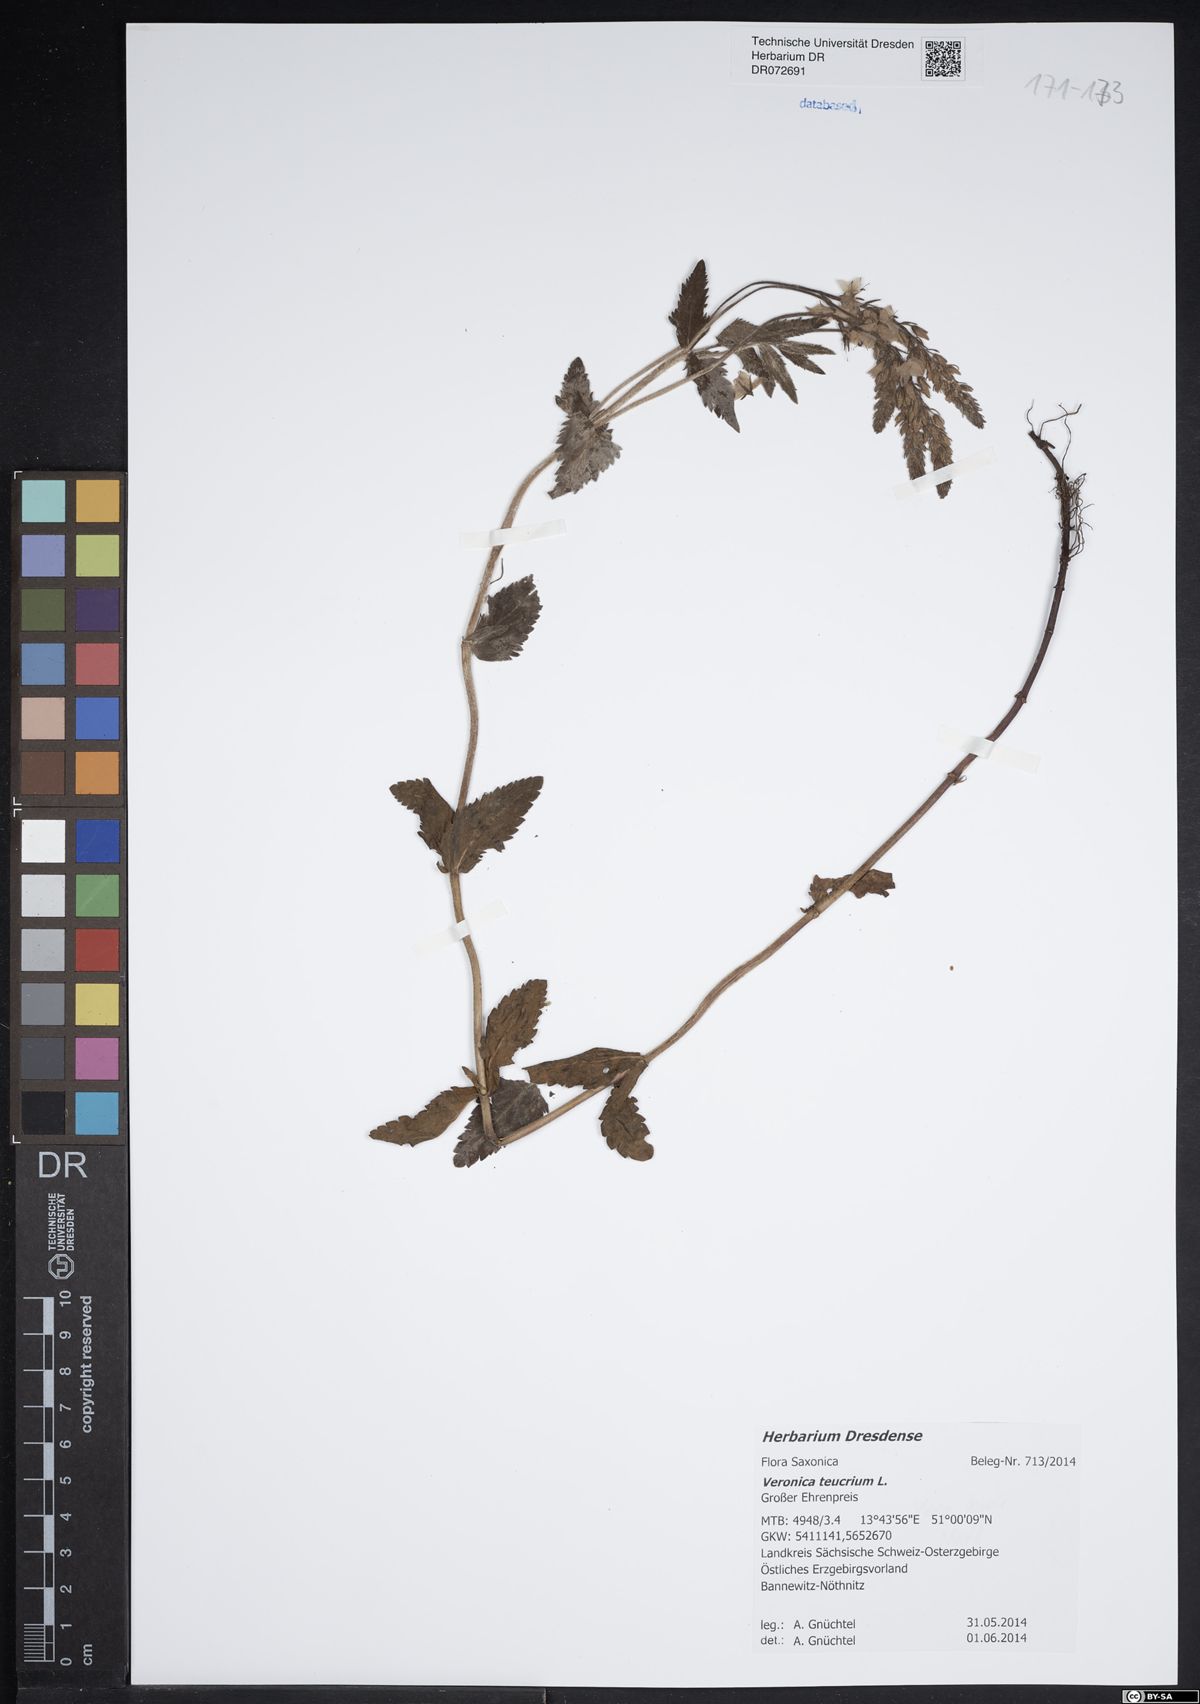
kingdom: Plantae
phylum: Tracheophyta
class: Magnoliopsida
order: Lamiales
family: Plantaginaceae
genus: Veronica
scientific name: Veronica teucrium
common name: Large speedwell
